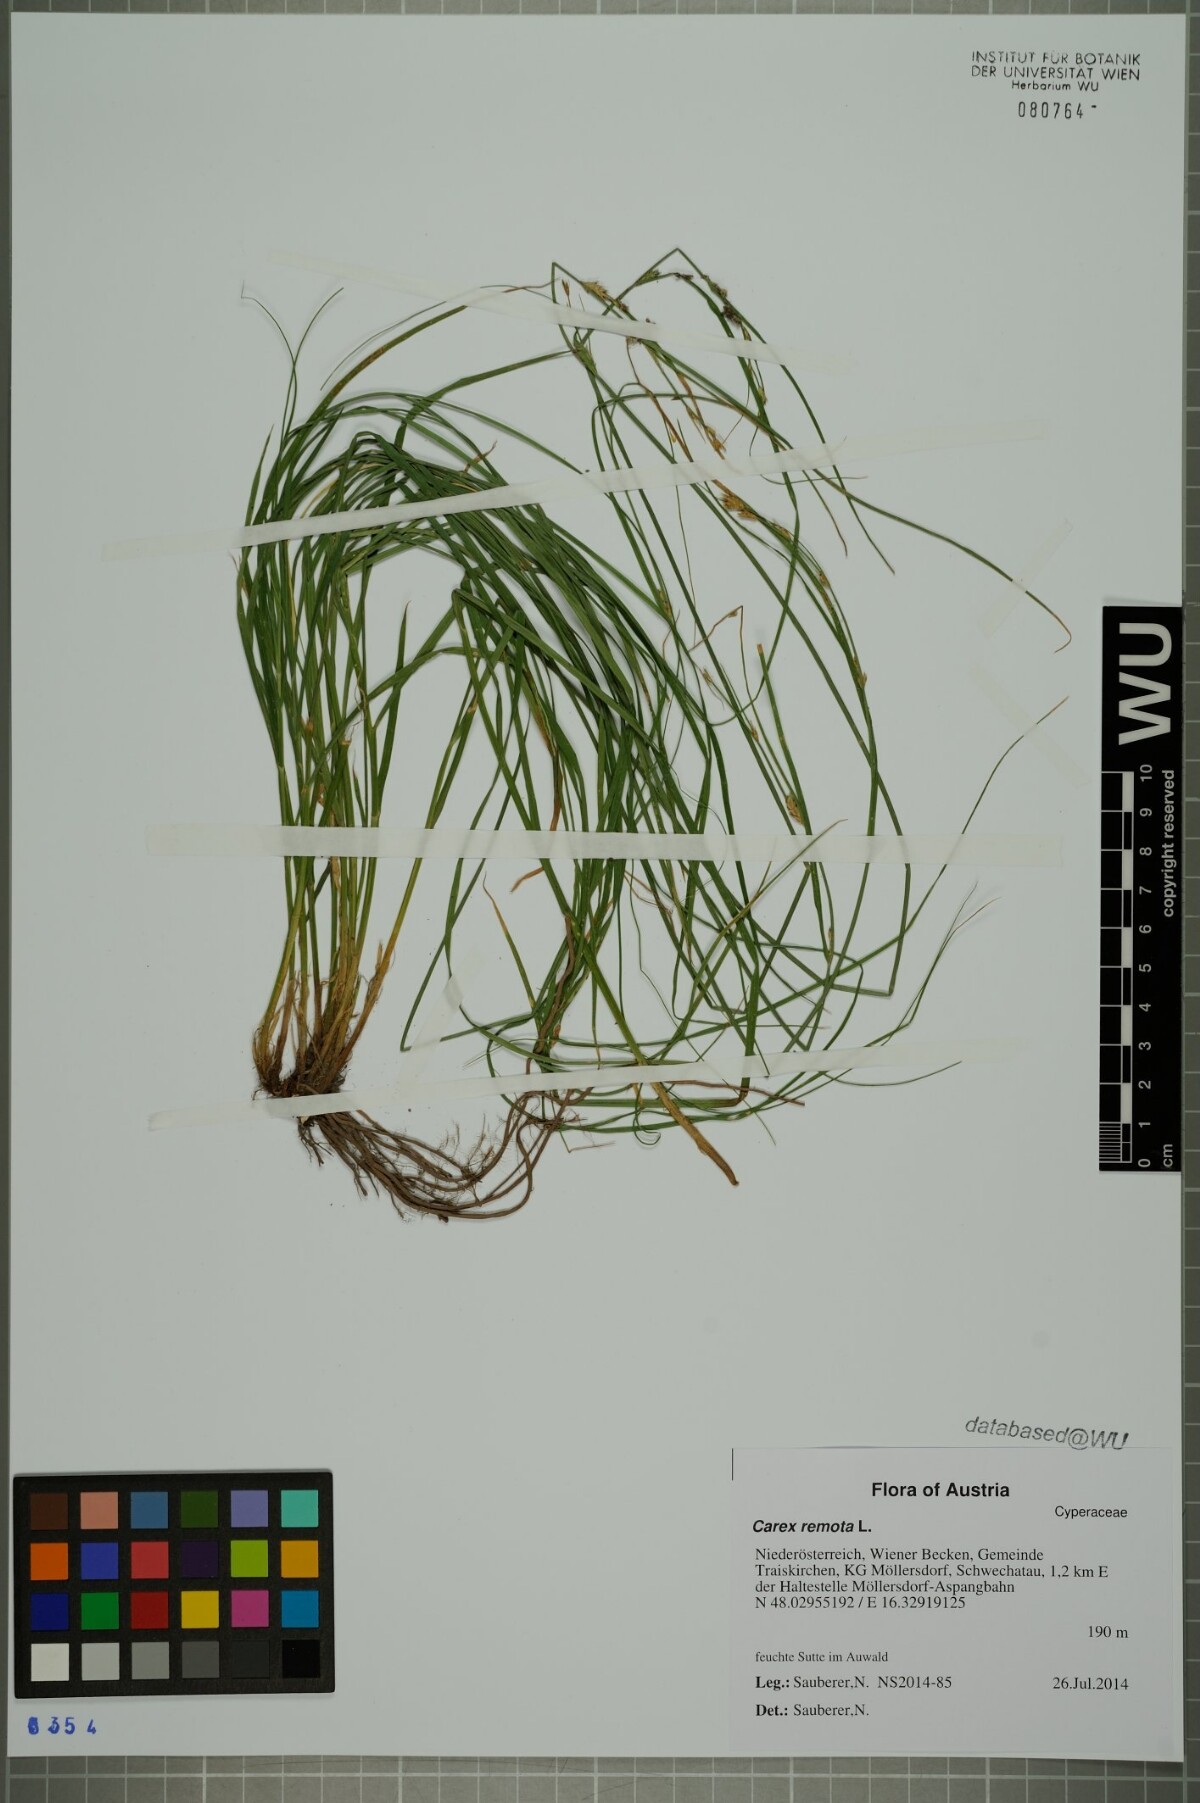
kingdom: Plantae
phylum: Tracheophyta
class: Liliopsida
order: Poales
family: Cyperaceae
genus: Carex
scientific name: Carex remota
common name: Remote sedge
